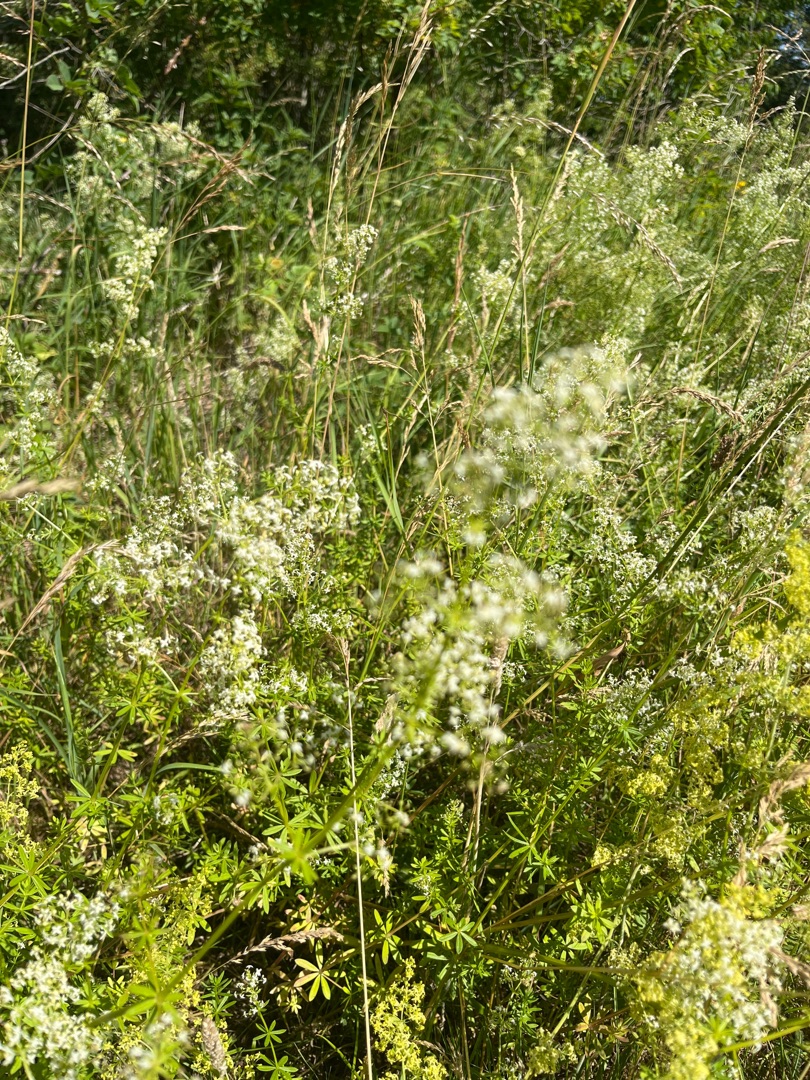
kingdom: Plantae
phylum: Tracheophyta
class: Magnoliopsida
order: Gentianales
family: Rubiaceae
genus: Galium
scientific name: Galium mollugo
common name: Hvid snerre
